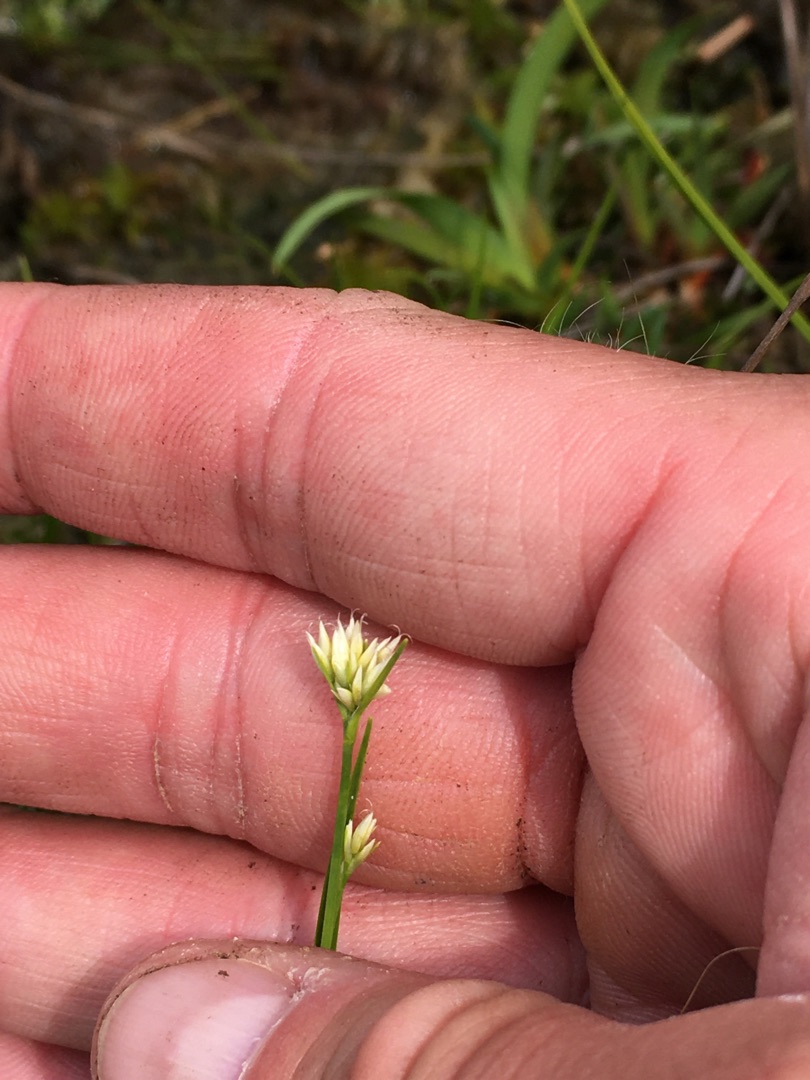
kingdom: Plantae
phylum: Tracheophyta
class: Liliopsida
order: Poales
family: Cyperaceae
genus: Rhynchospora
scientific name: Rhynchospora alba
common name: Hvid næbfrø
